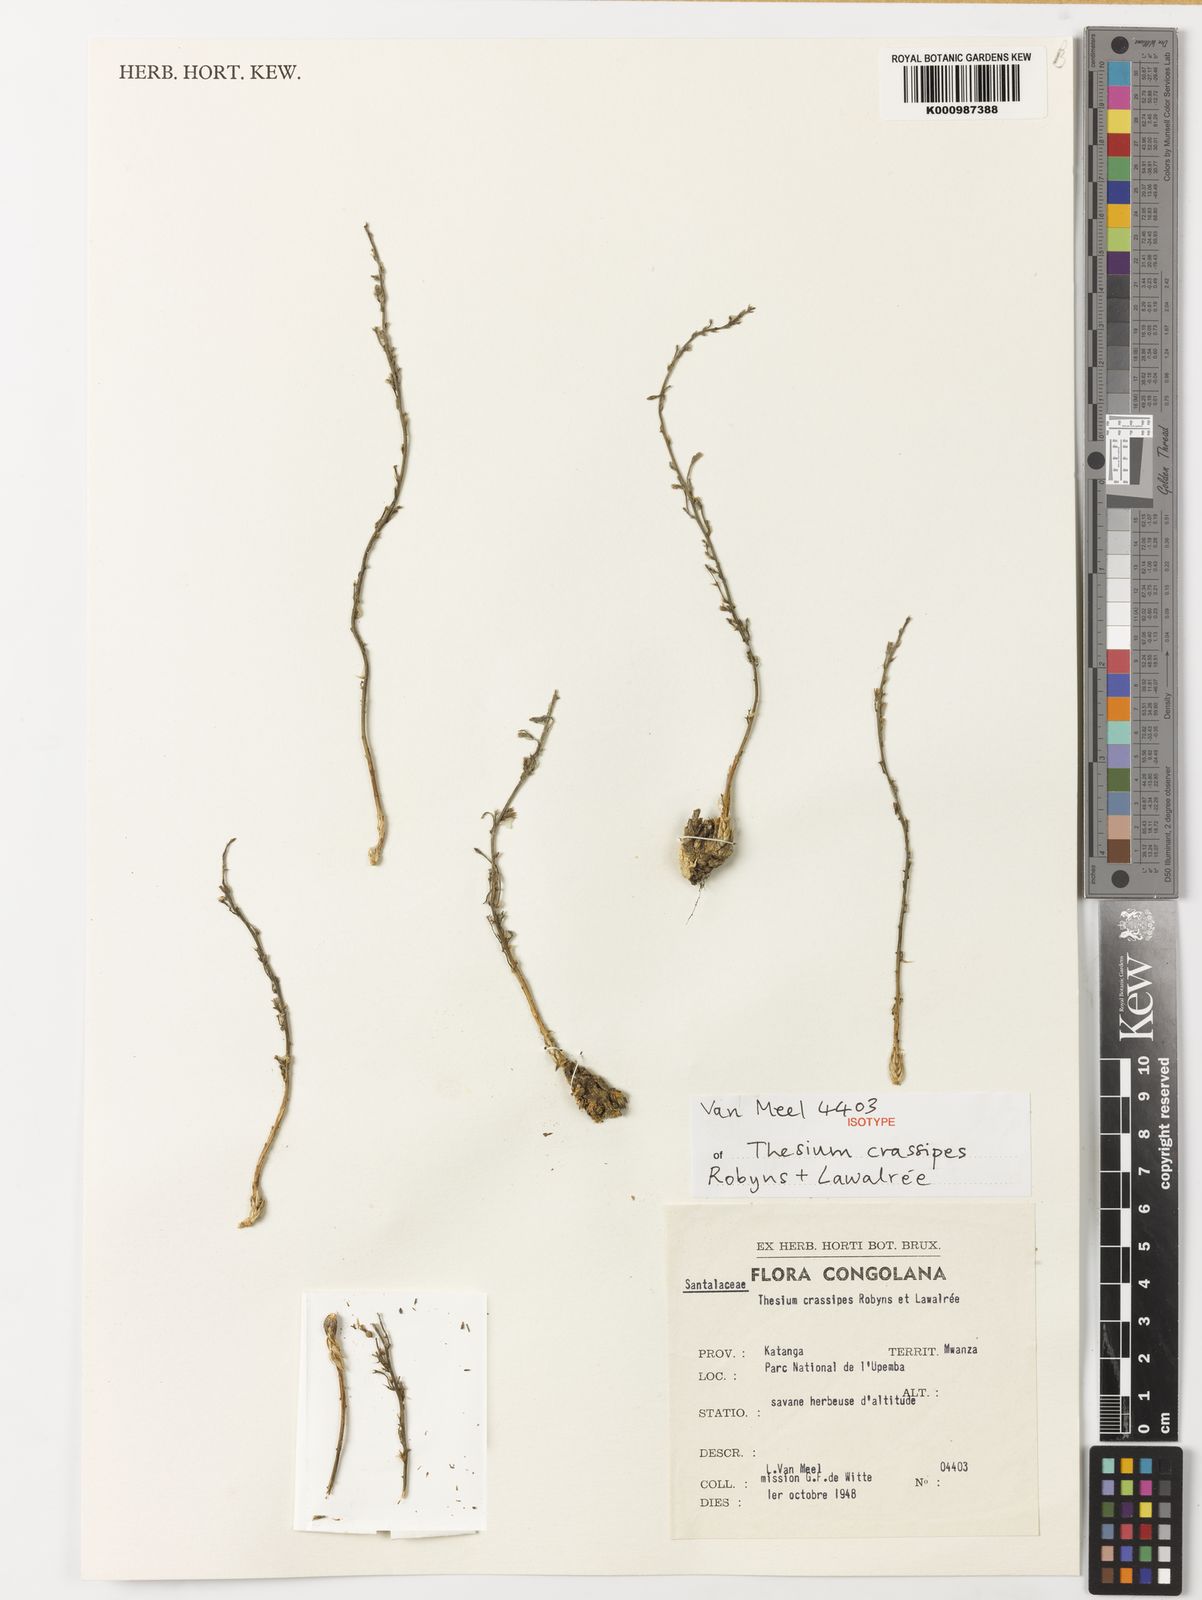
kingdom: Plantae
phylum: Tracheophyta
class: Magnoliopsida
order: Santalales
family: Thesiaceae
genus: Thesium
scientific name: Thesium
